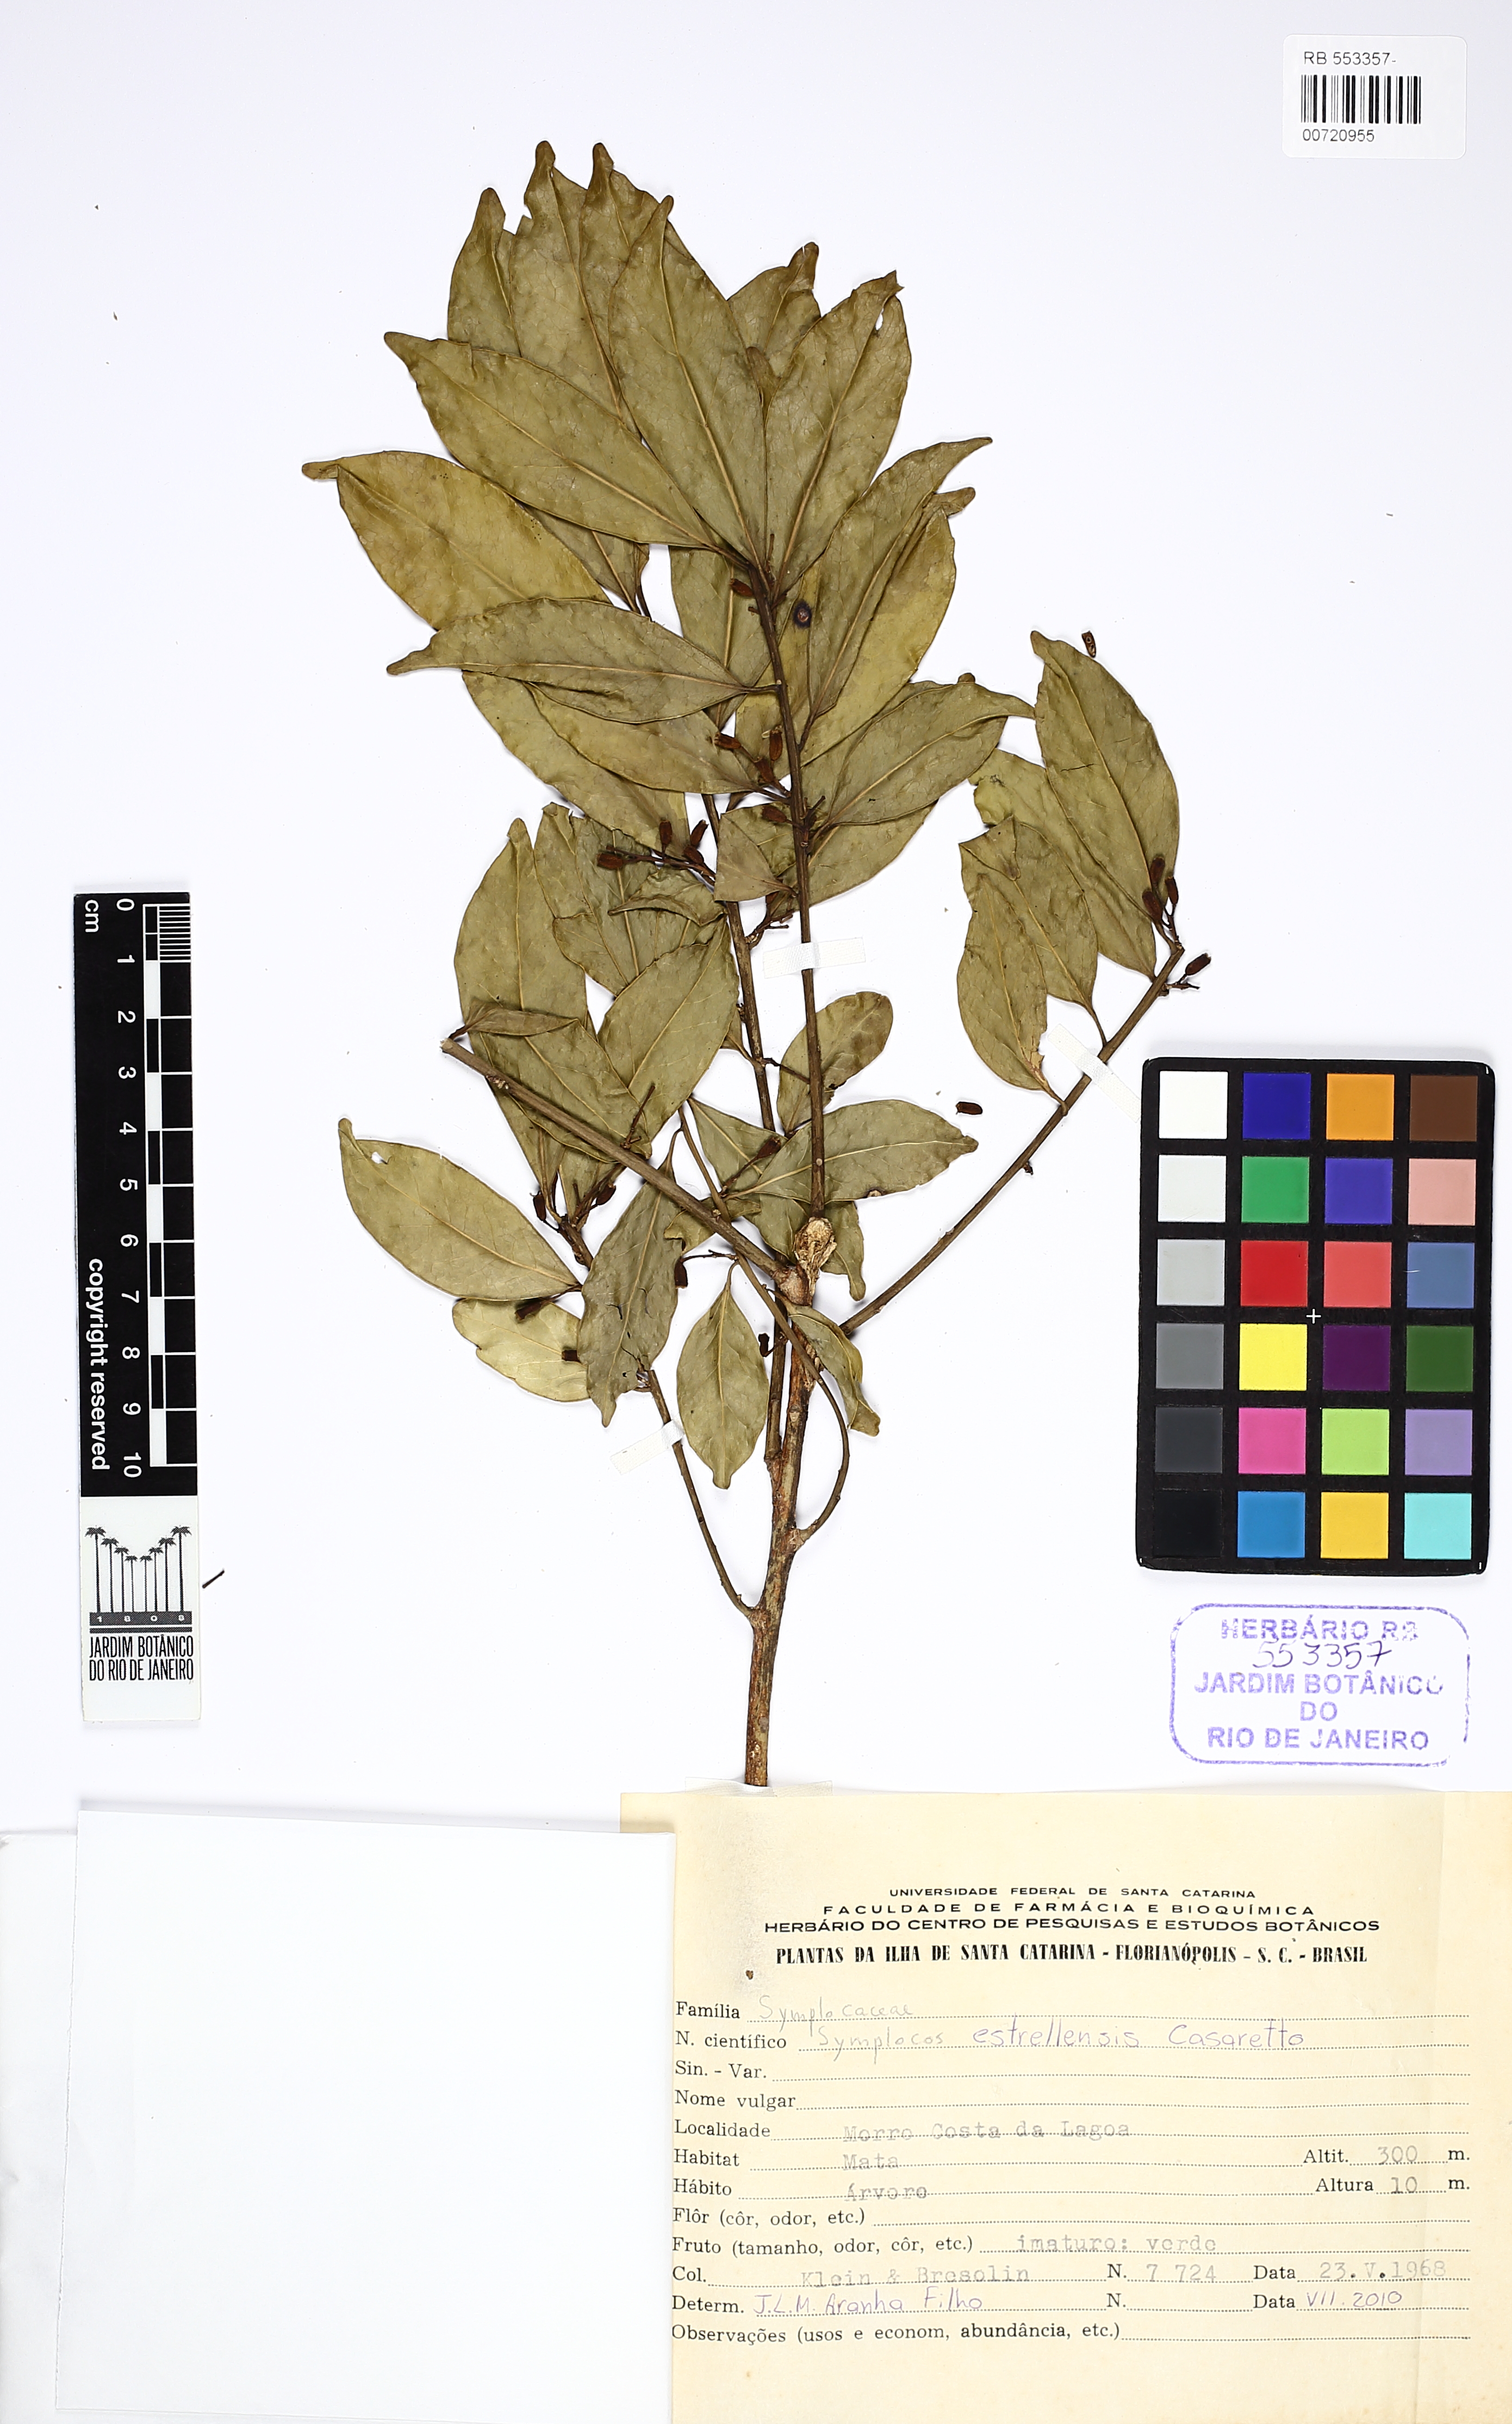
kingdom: Plantae
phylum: Tracheophyta
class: Magnoliopsida
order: Ericales
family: Symplocaceae
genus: Symplocos
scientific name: Symplocos estrellensis
